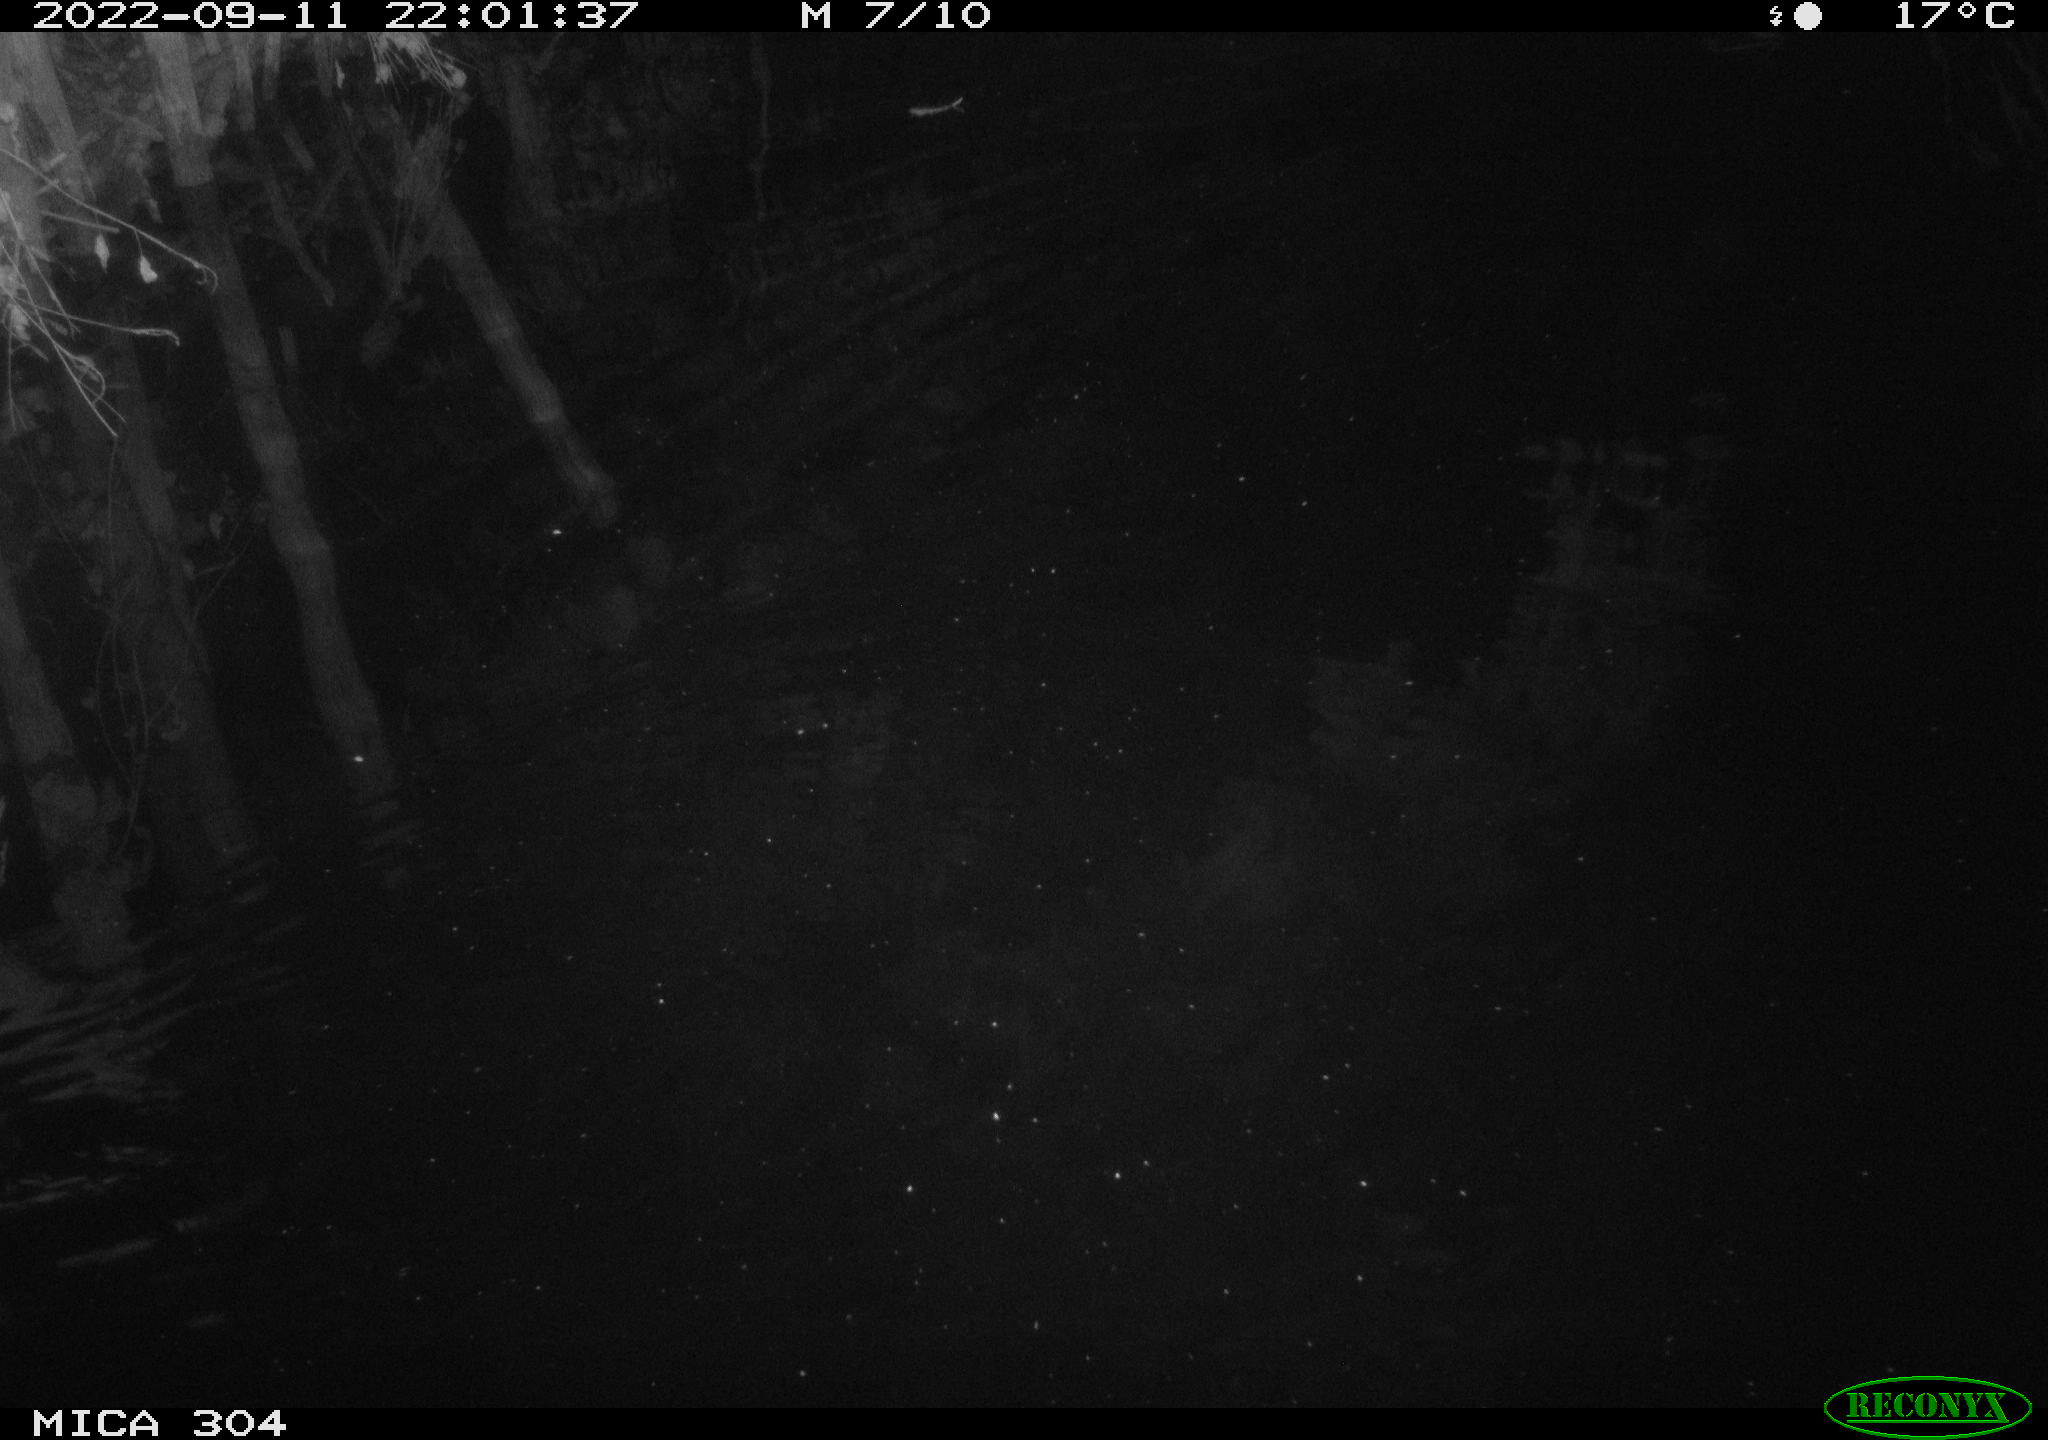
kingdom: Animalia
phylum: Chordata
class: Mammalia
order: Rodentia
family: Muridae
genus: Rattus
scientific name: Rattus norvegicus
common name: Brown rat
